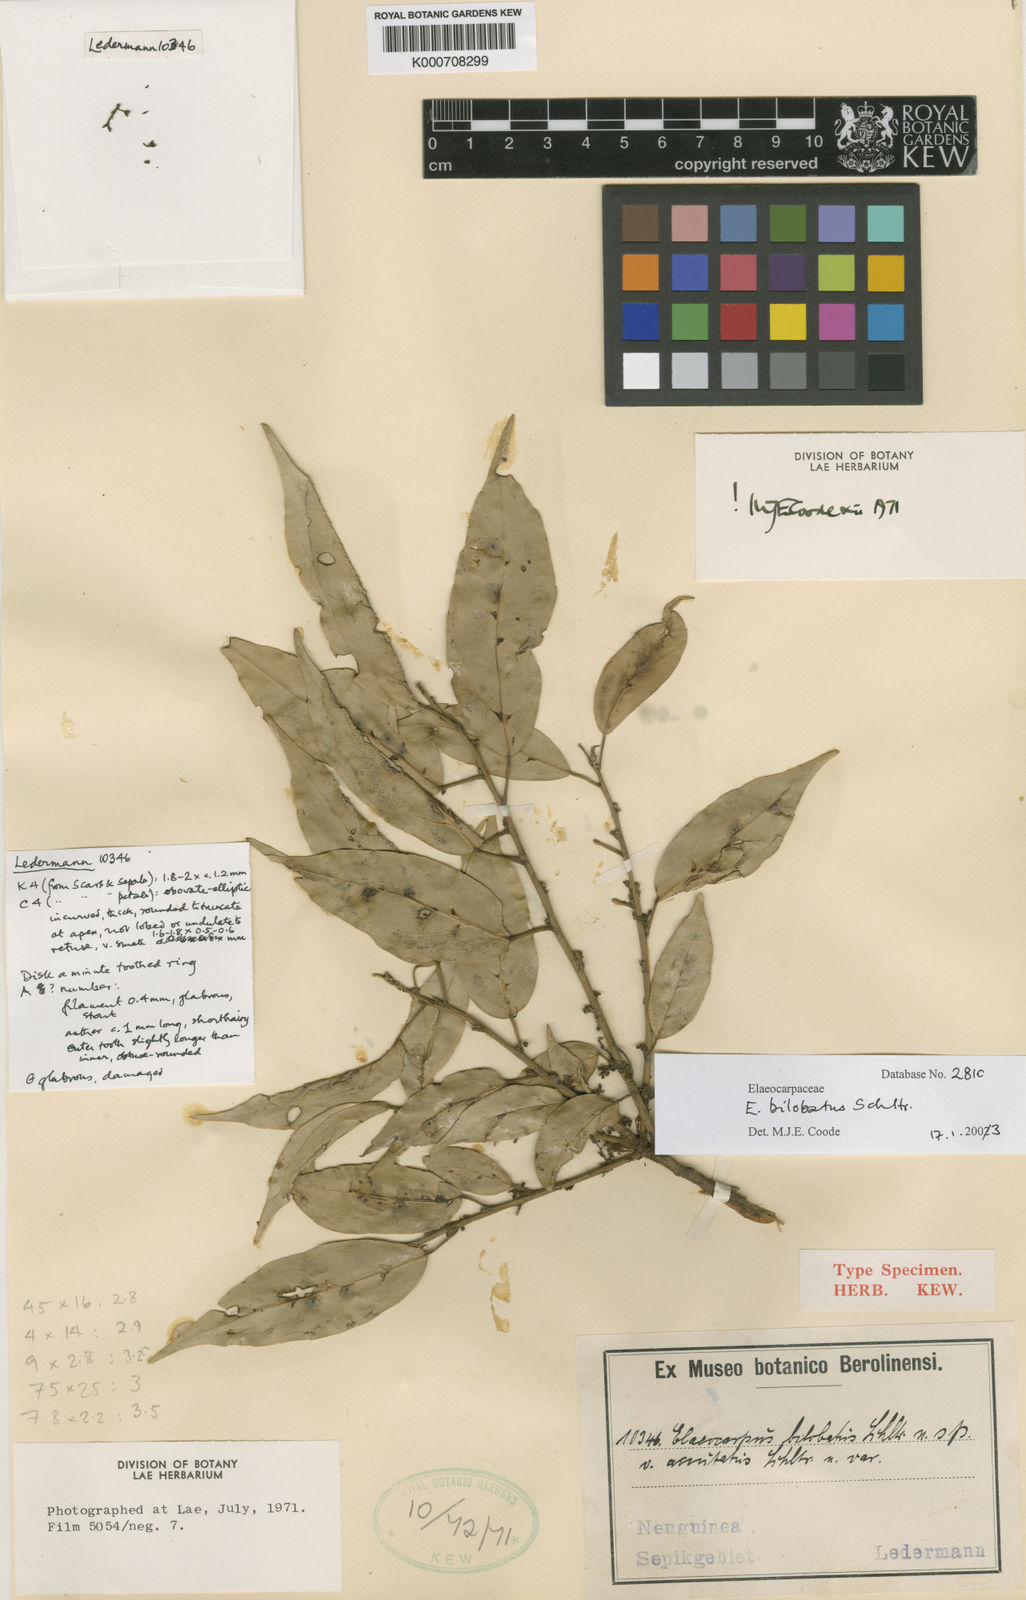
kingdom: Plantae
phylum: Tracheophyta
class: Magnoliopsida
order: Oxalidales
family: Elaeocarpaceae
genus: Elaeocarpus
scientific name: Elaeocarpus bilobatus
